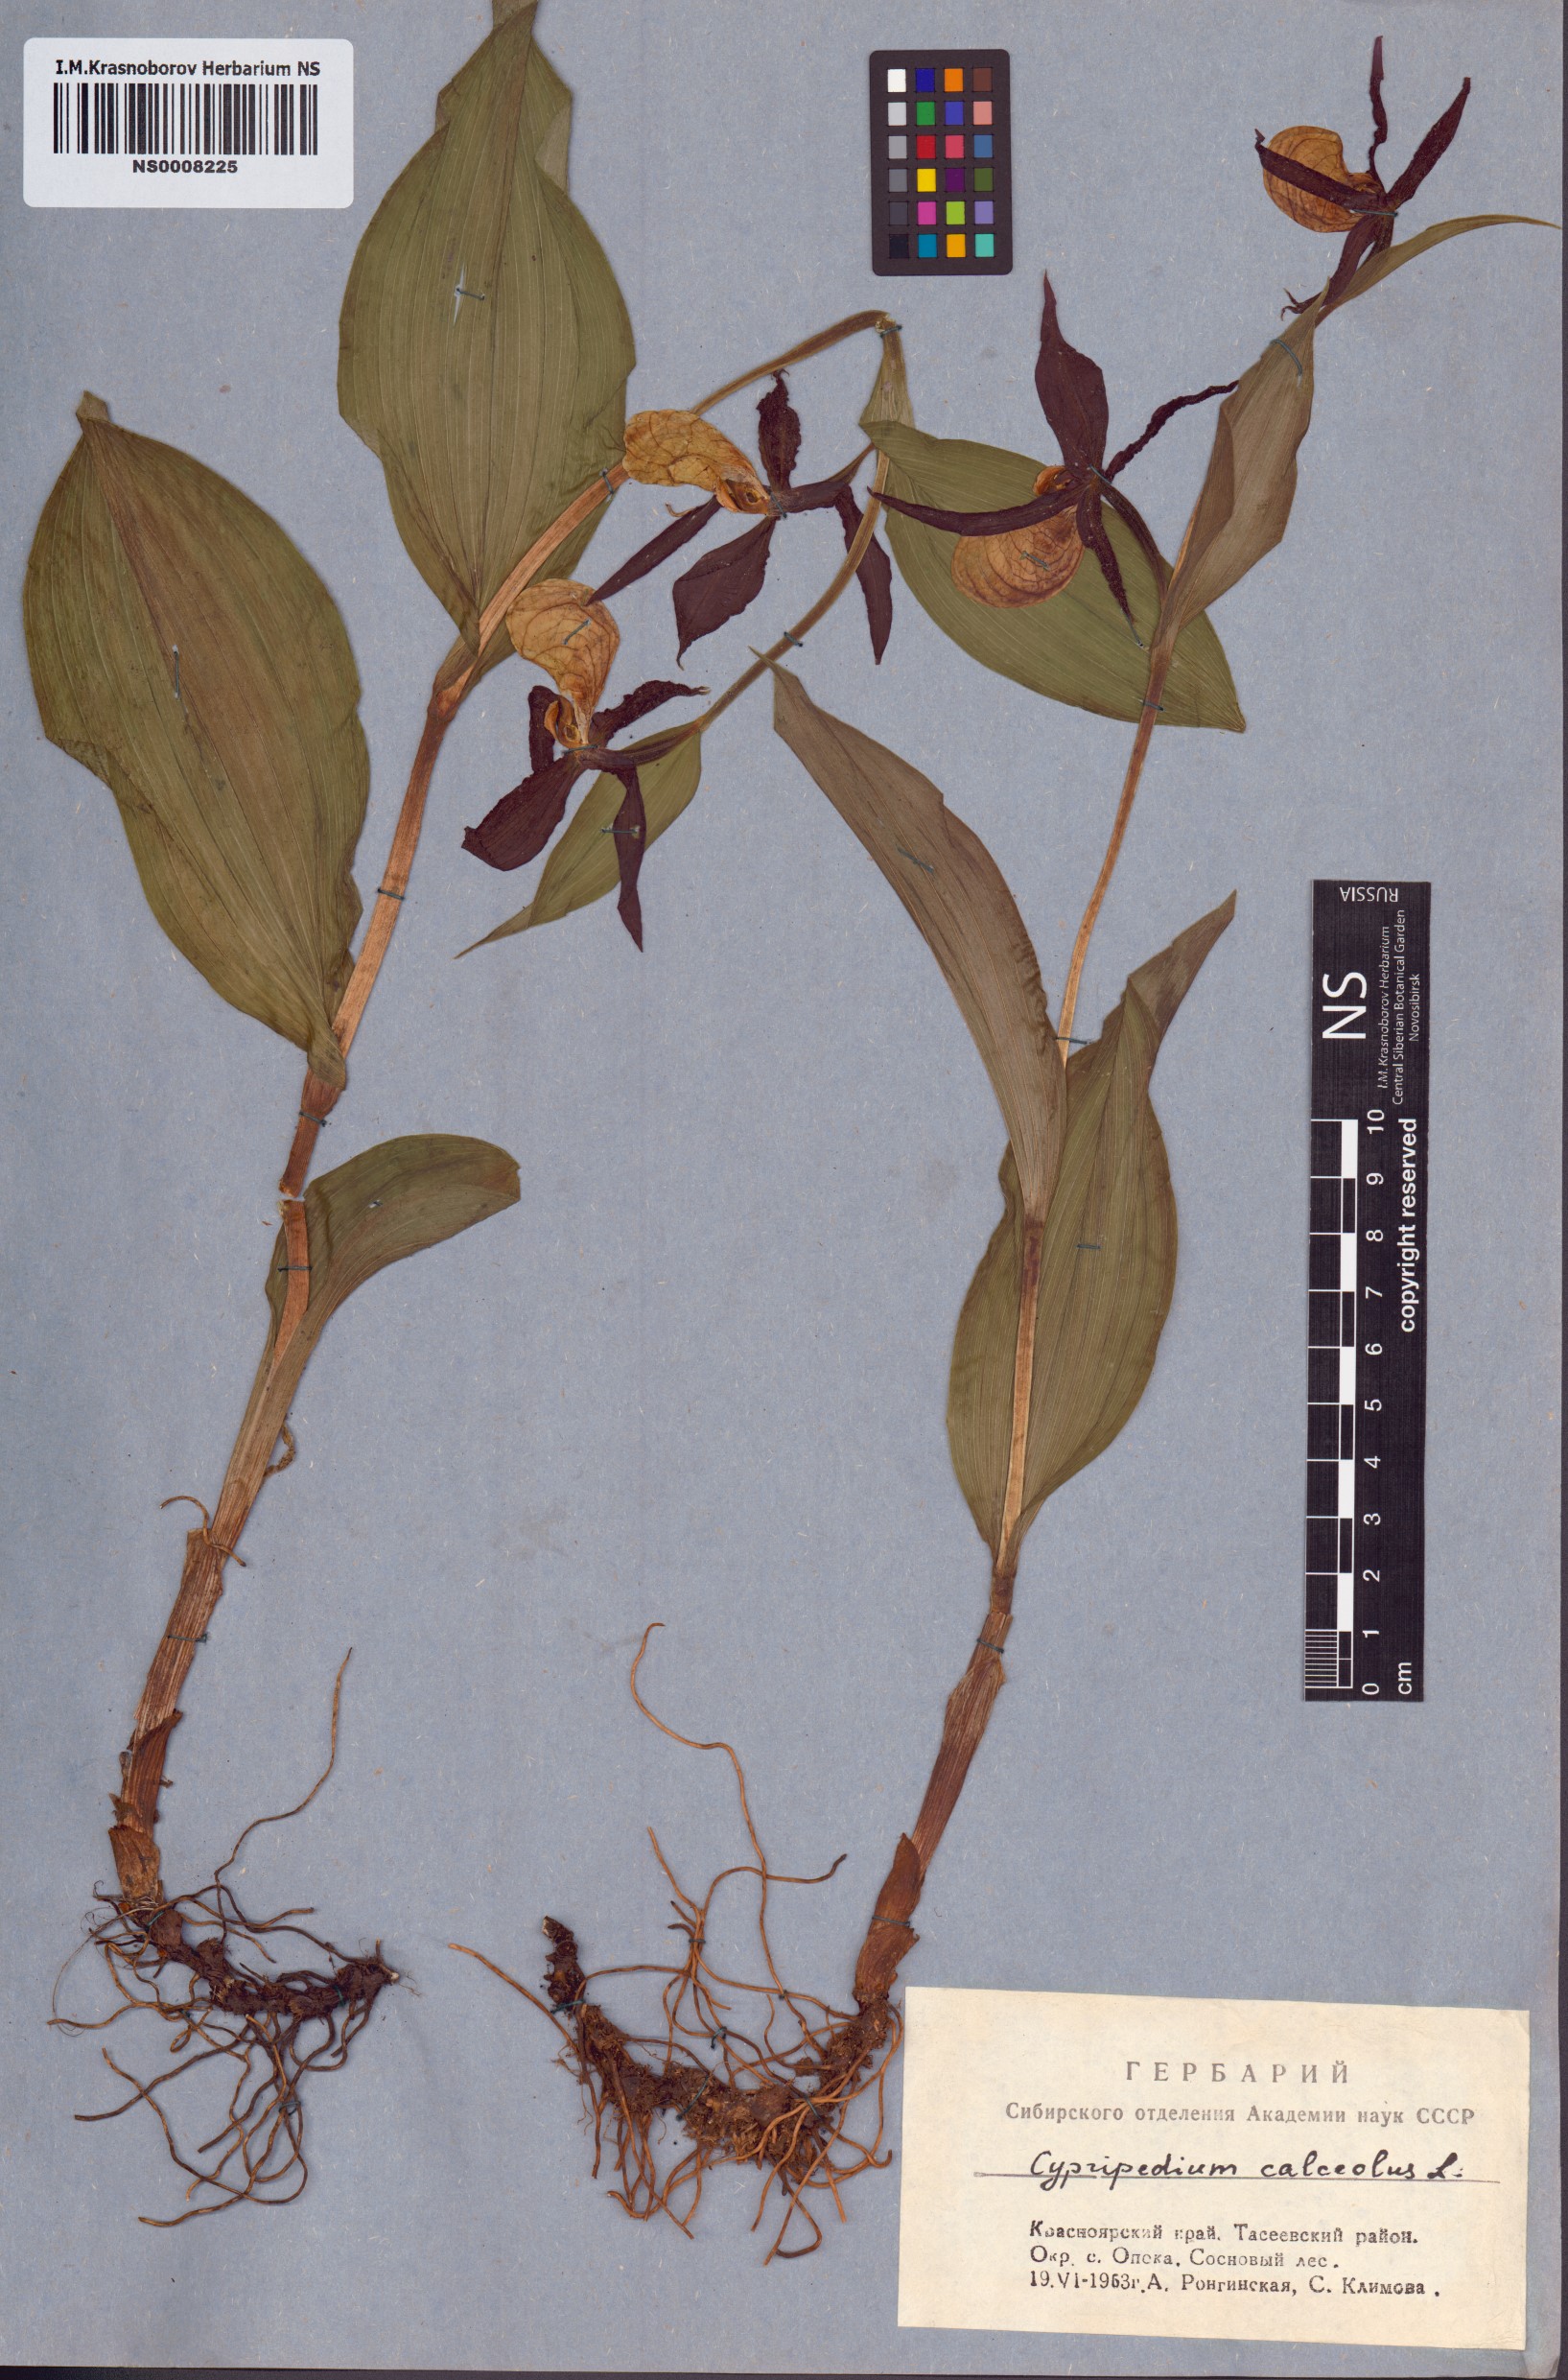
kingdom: Plantae
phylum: Tracheophyta
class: Liliopsida
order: Asparagales
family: Orchidaceae
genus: Cypripedium
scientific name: Cypripedium calceolus
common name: Lady's-slipper
